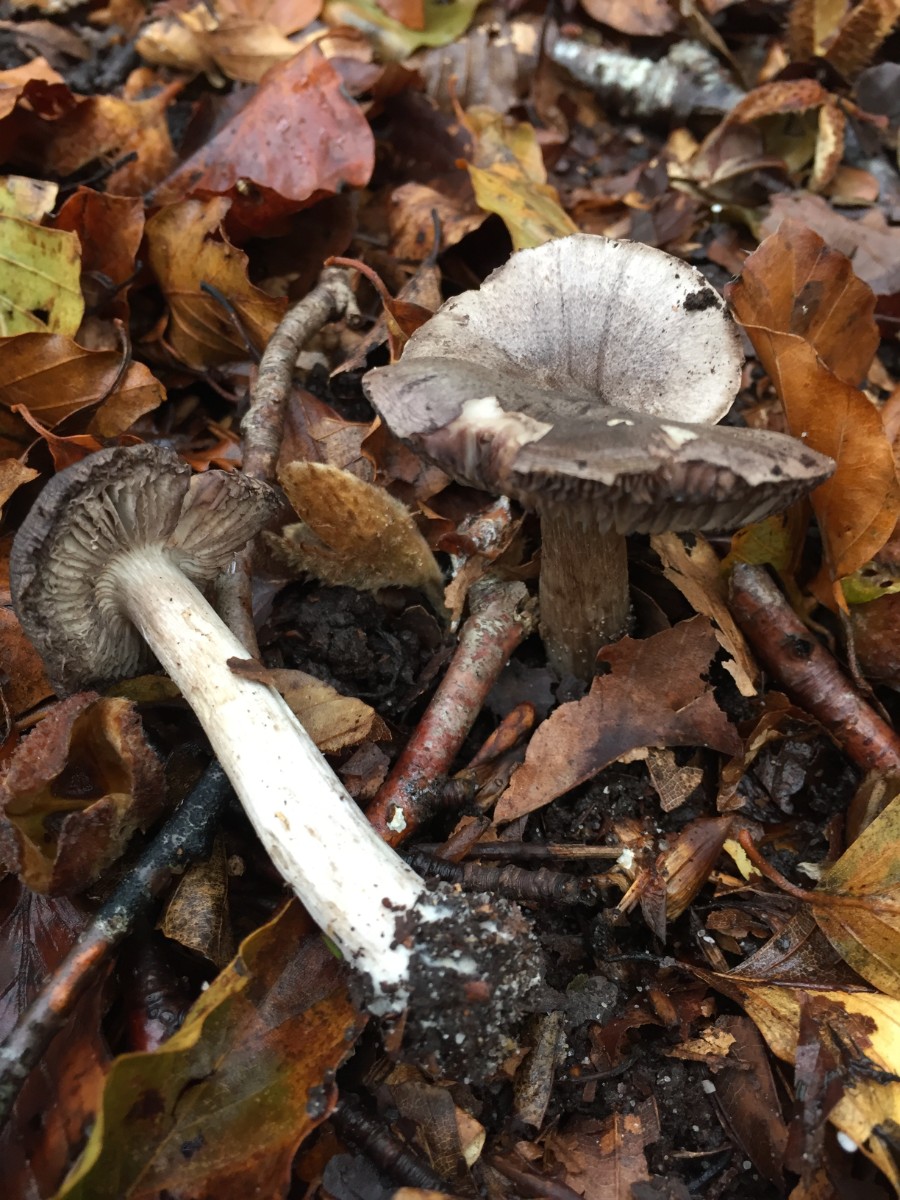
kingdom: Fungi
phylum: Basidiomycota
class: Agaricomycetes
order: Agaricales
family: Tricholomataceae
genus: Tricholoma
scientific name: Tricholoma sciodes
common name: stribet ridderhat
